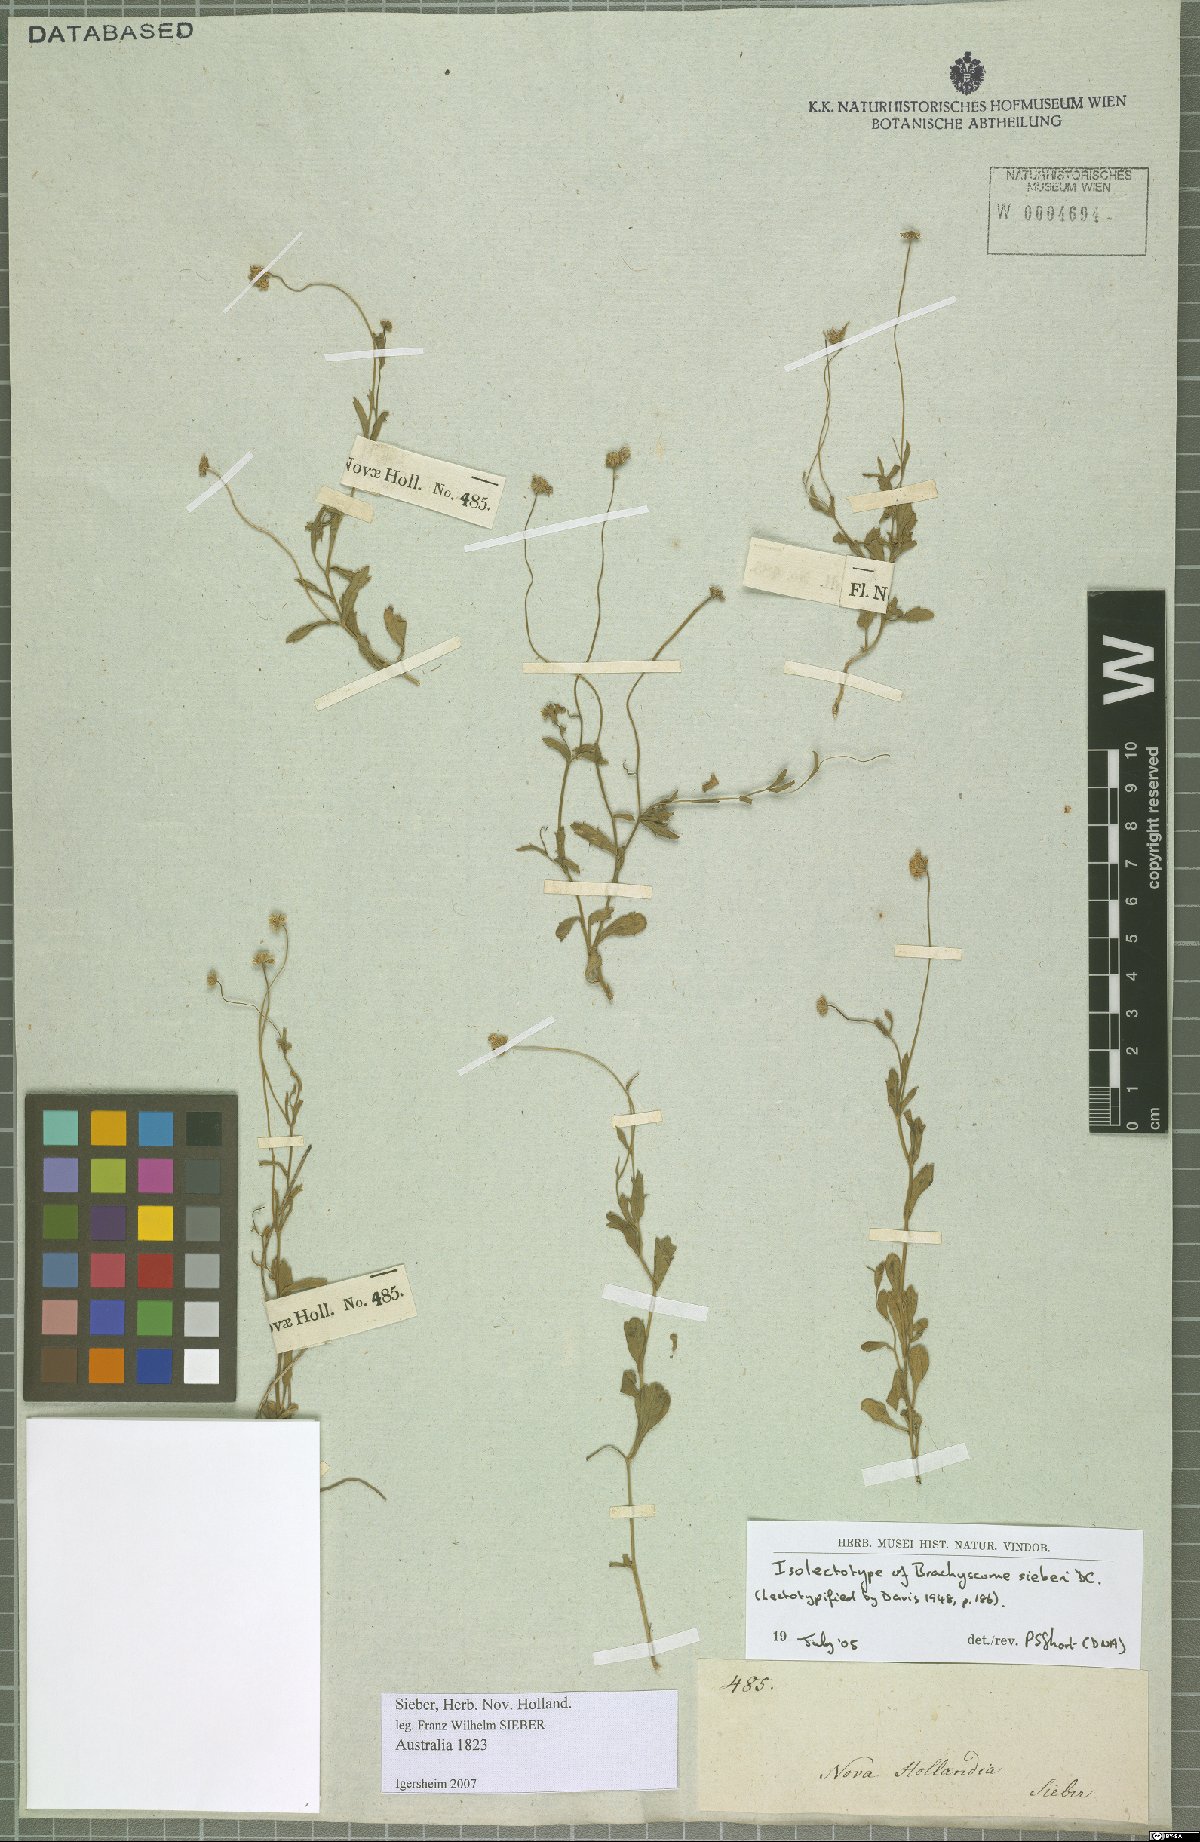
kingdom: Plantae
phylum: Tracheophyta
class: Magnoliopsida
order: Asterales
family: Asteraceae
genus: Brachyscome
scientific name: Brachyscome sieberi
